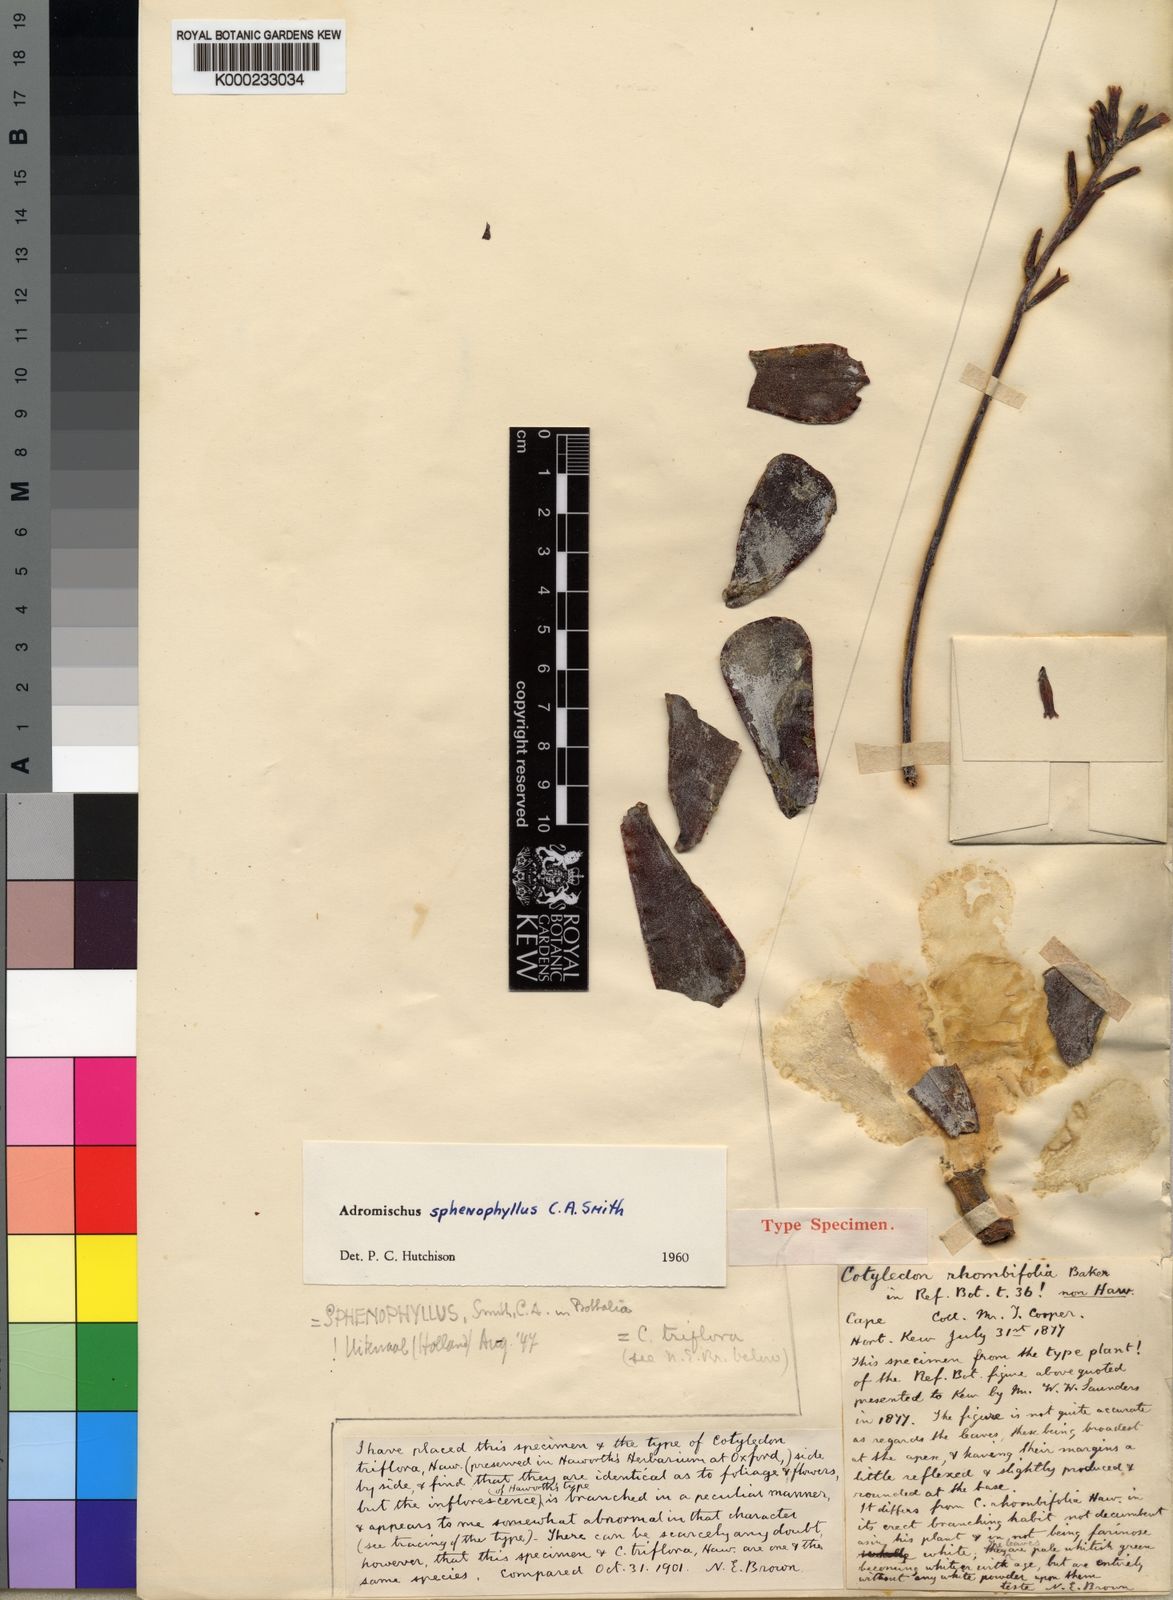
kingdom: Plantae
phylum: Tracheophyta
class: Magnoliopsida
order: Saxifragales
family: Crassulaceae
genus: Adromischus
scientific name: Adromischus sphenophyllus
